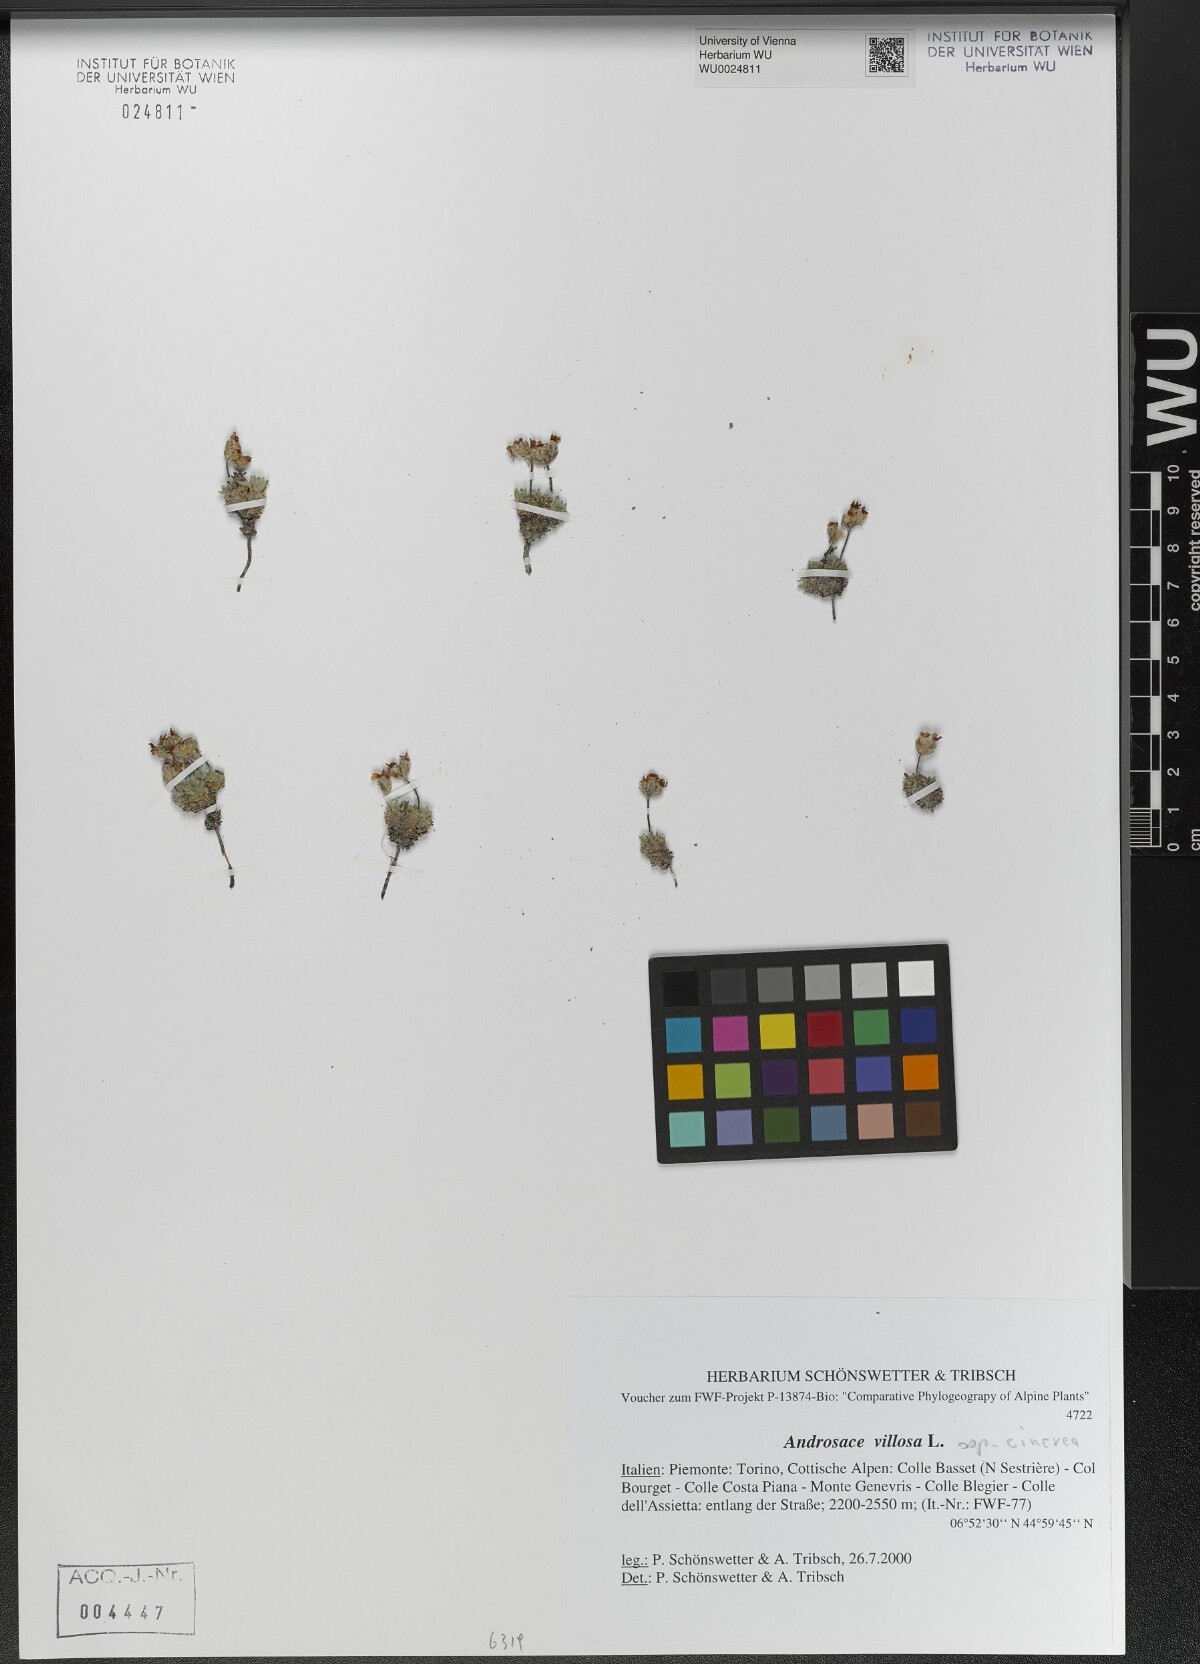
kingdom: Plantae
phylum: Tracheophyta
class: Magnoliopsida
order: Ericales
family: Primulaceae
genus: Androsace
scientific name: Androsace villosa
